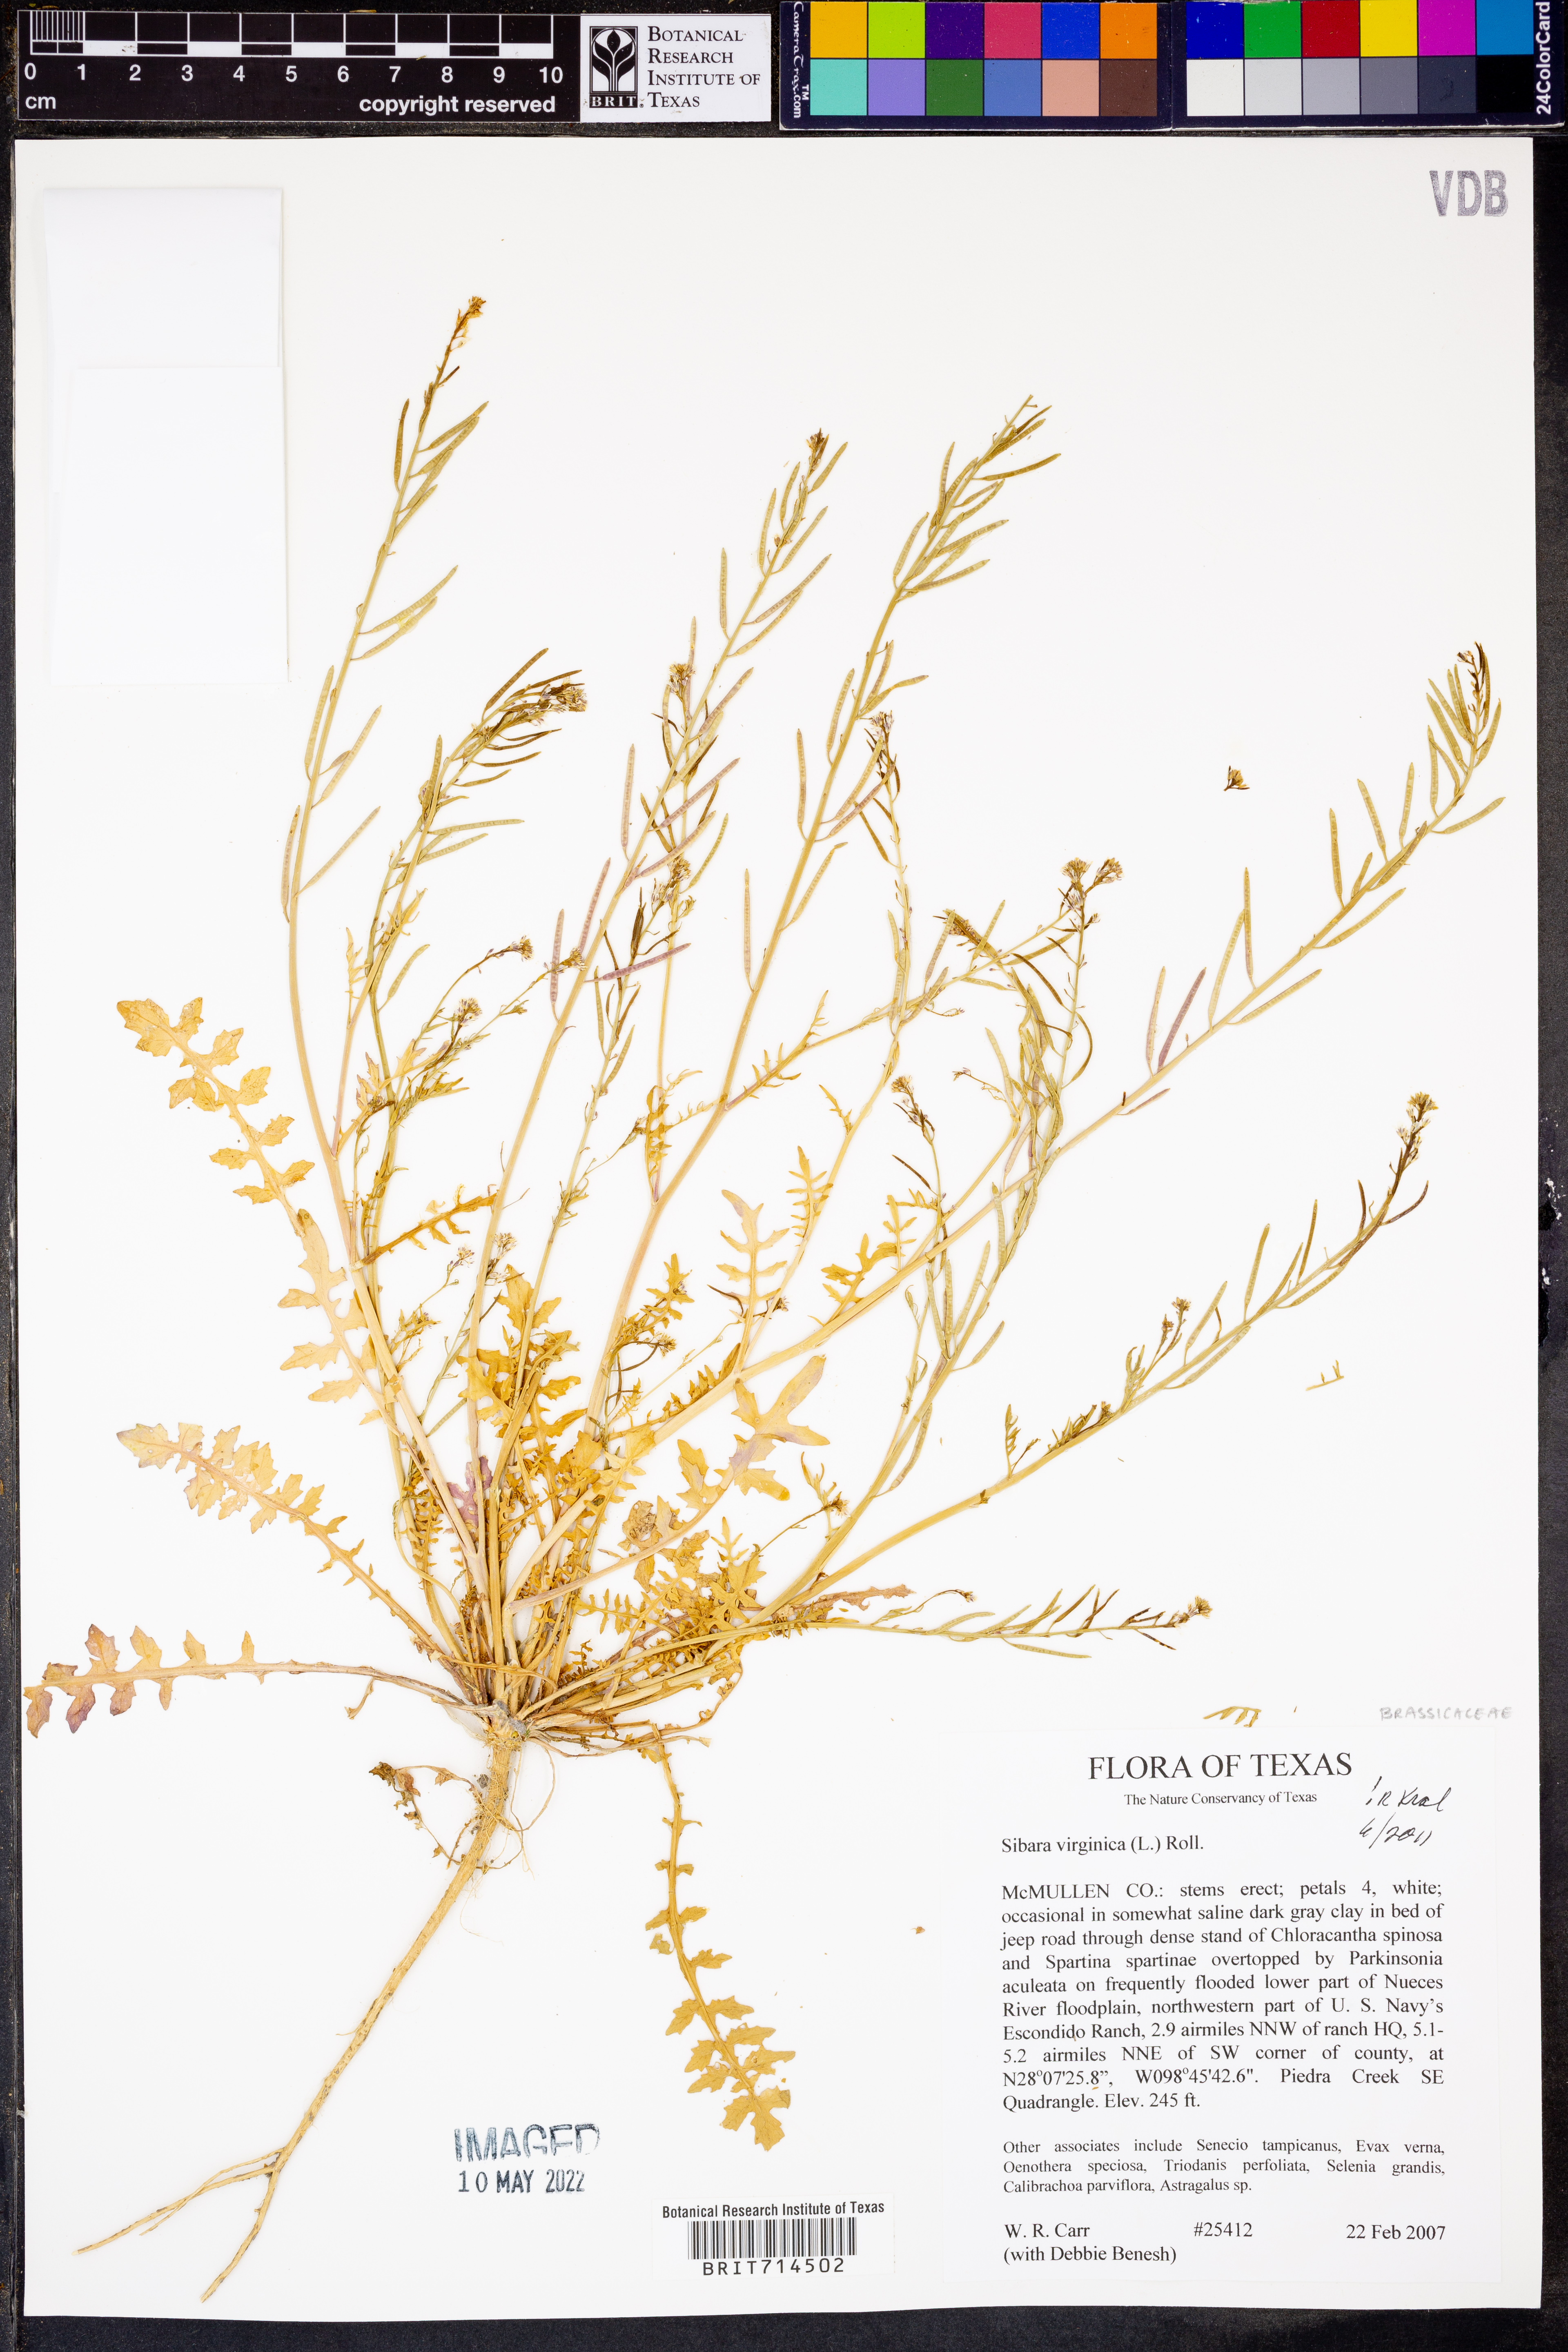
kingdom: Plantae
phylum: Tracheophyta
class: Magnoliopsida
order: Brassicales
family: Brassicaceae
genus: Planodes
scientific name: Planodes virginicum
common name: Virginia cress
